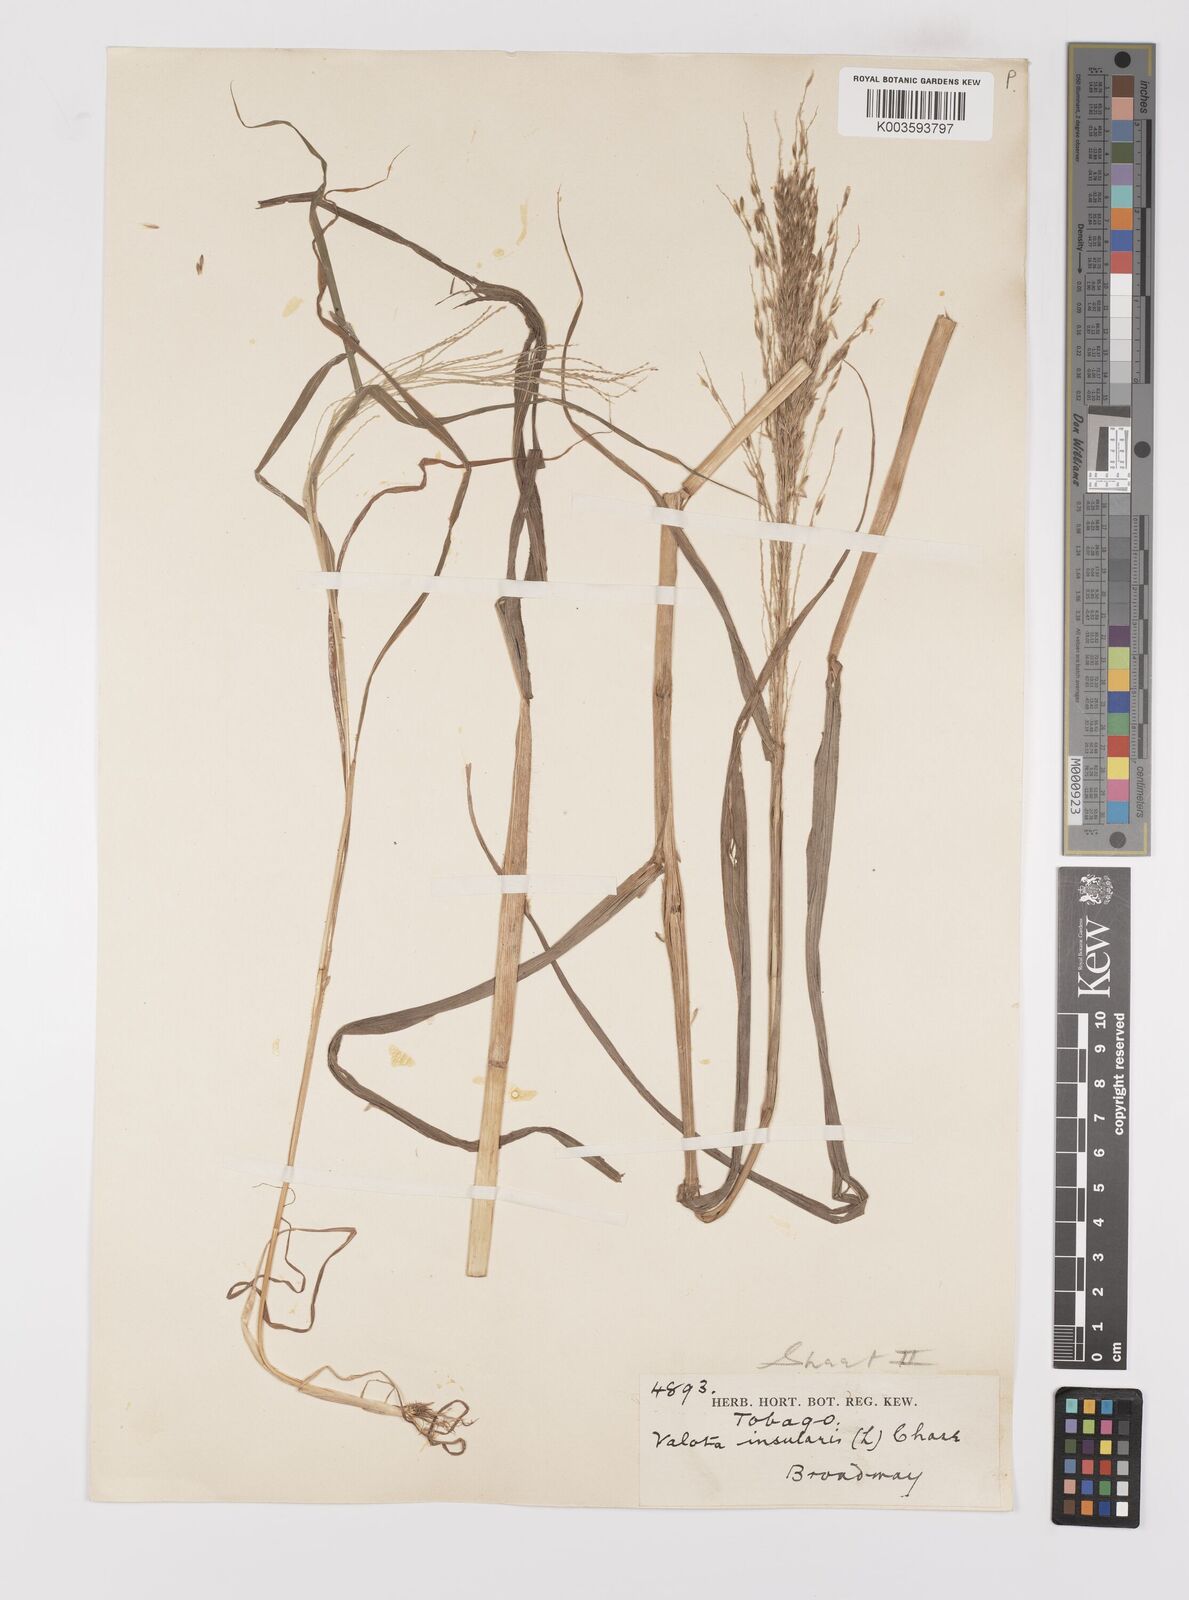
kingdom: Plantae
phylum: Tracheophyta
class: Liliopsida
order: Poales
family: Poaceae
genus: Digitaria
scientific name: Digitaria insularis
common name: Sourgrass
